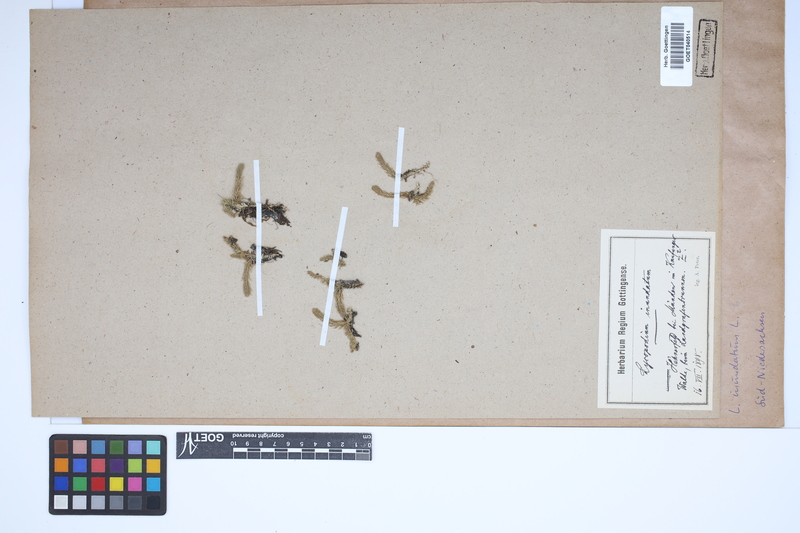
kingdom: Plantae
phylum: Tracheophyta
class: Lycopodiopsida
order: Lycopodiales
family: Lycopodiaceae
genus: Lycopodiella
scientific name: Lycopodiella inundata
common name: Marsh clubmoss
